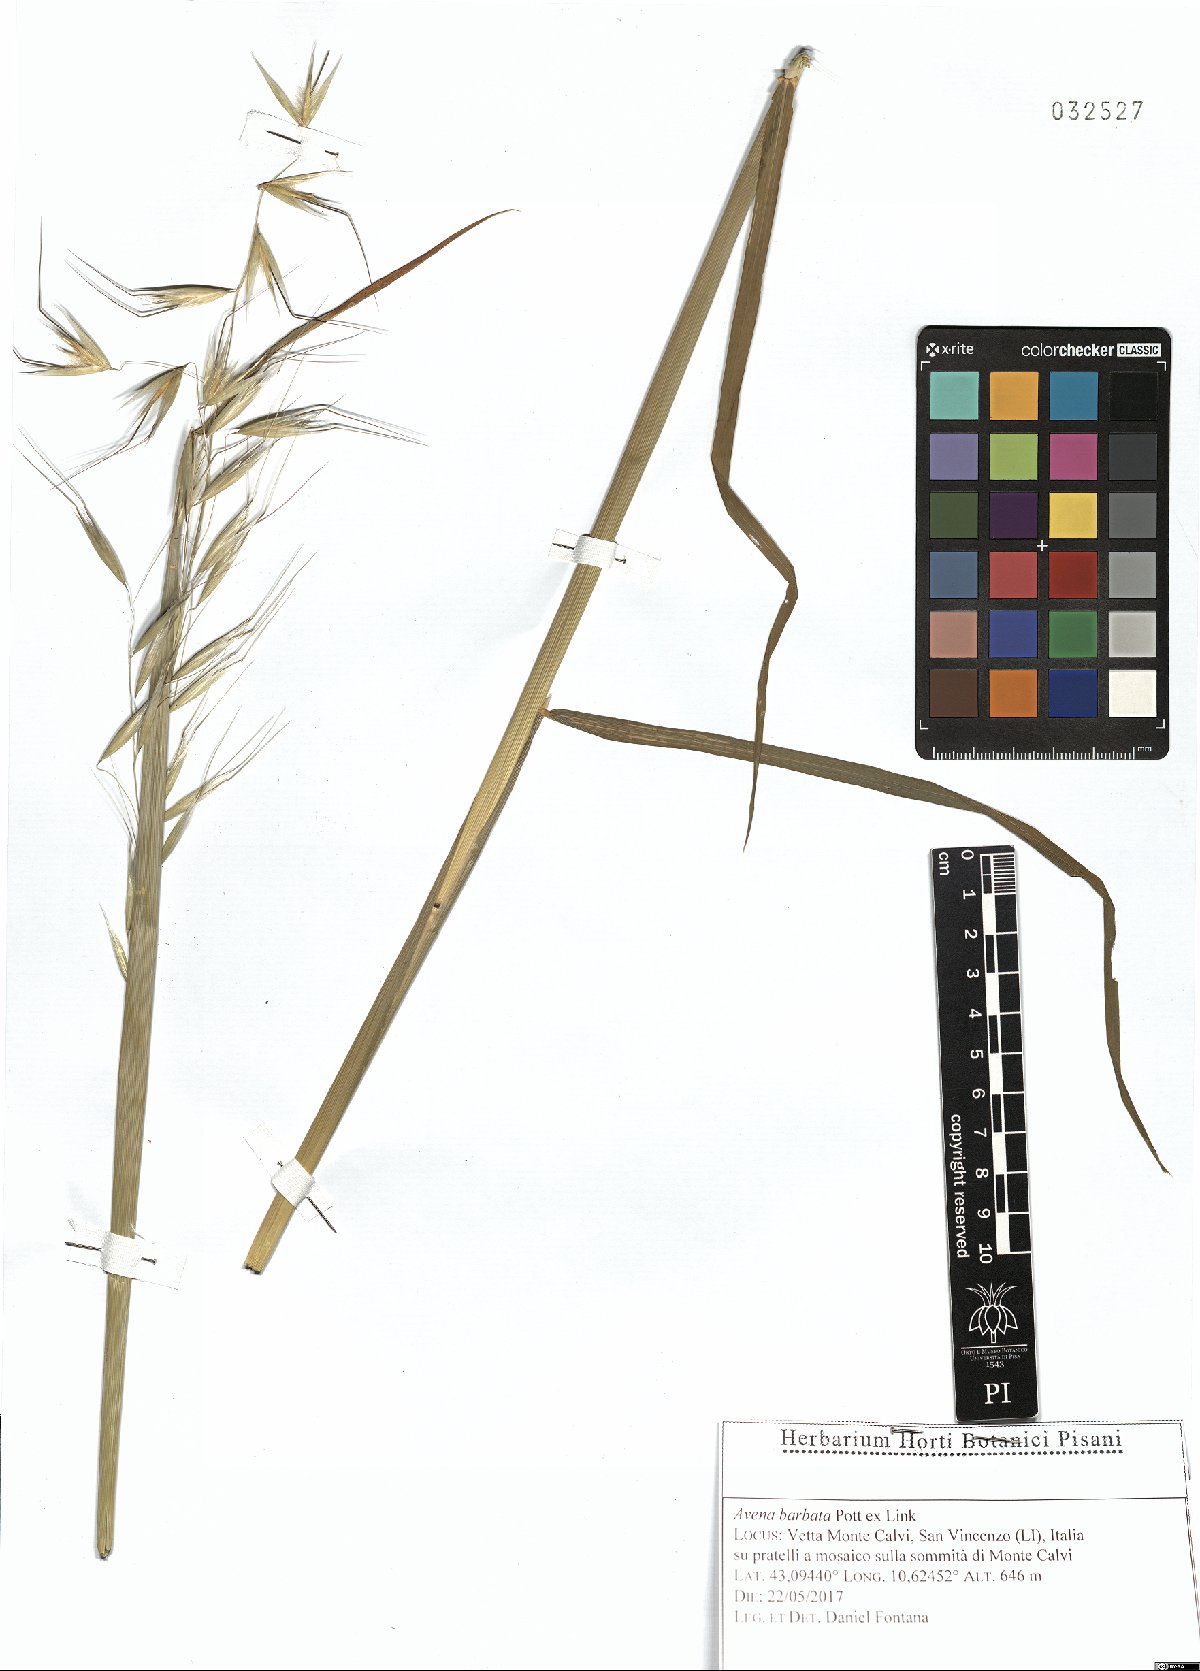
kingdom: Plantae
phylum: Tracheophyta
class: Liliopsida
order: Poales
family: Poaceae
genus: Avena
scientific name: Avena barbata
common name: Slender oat
